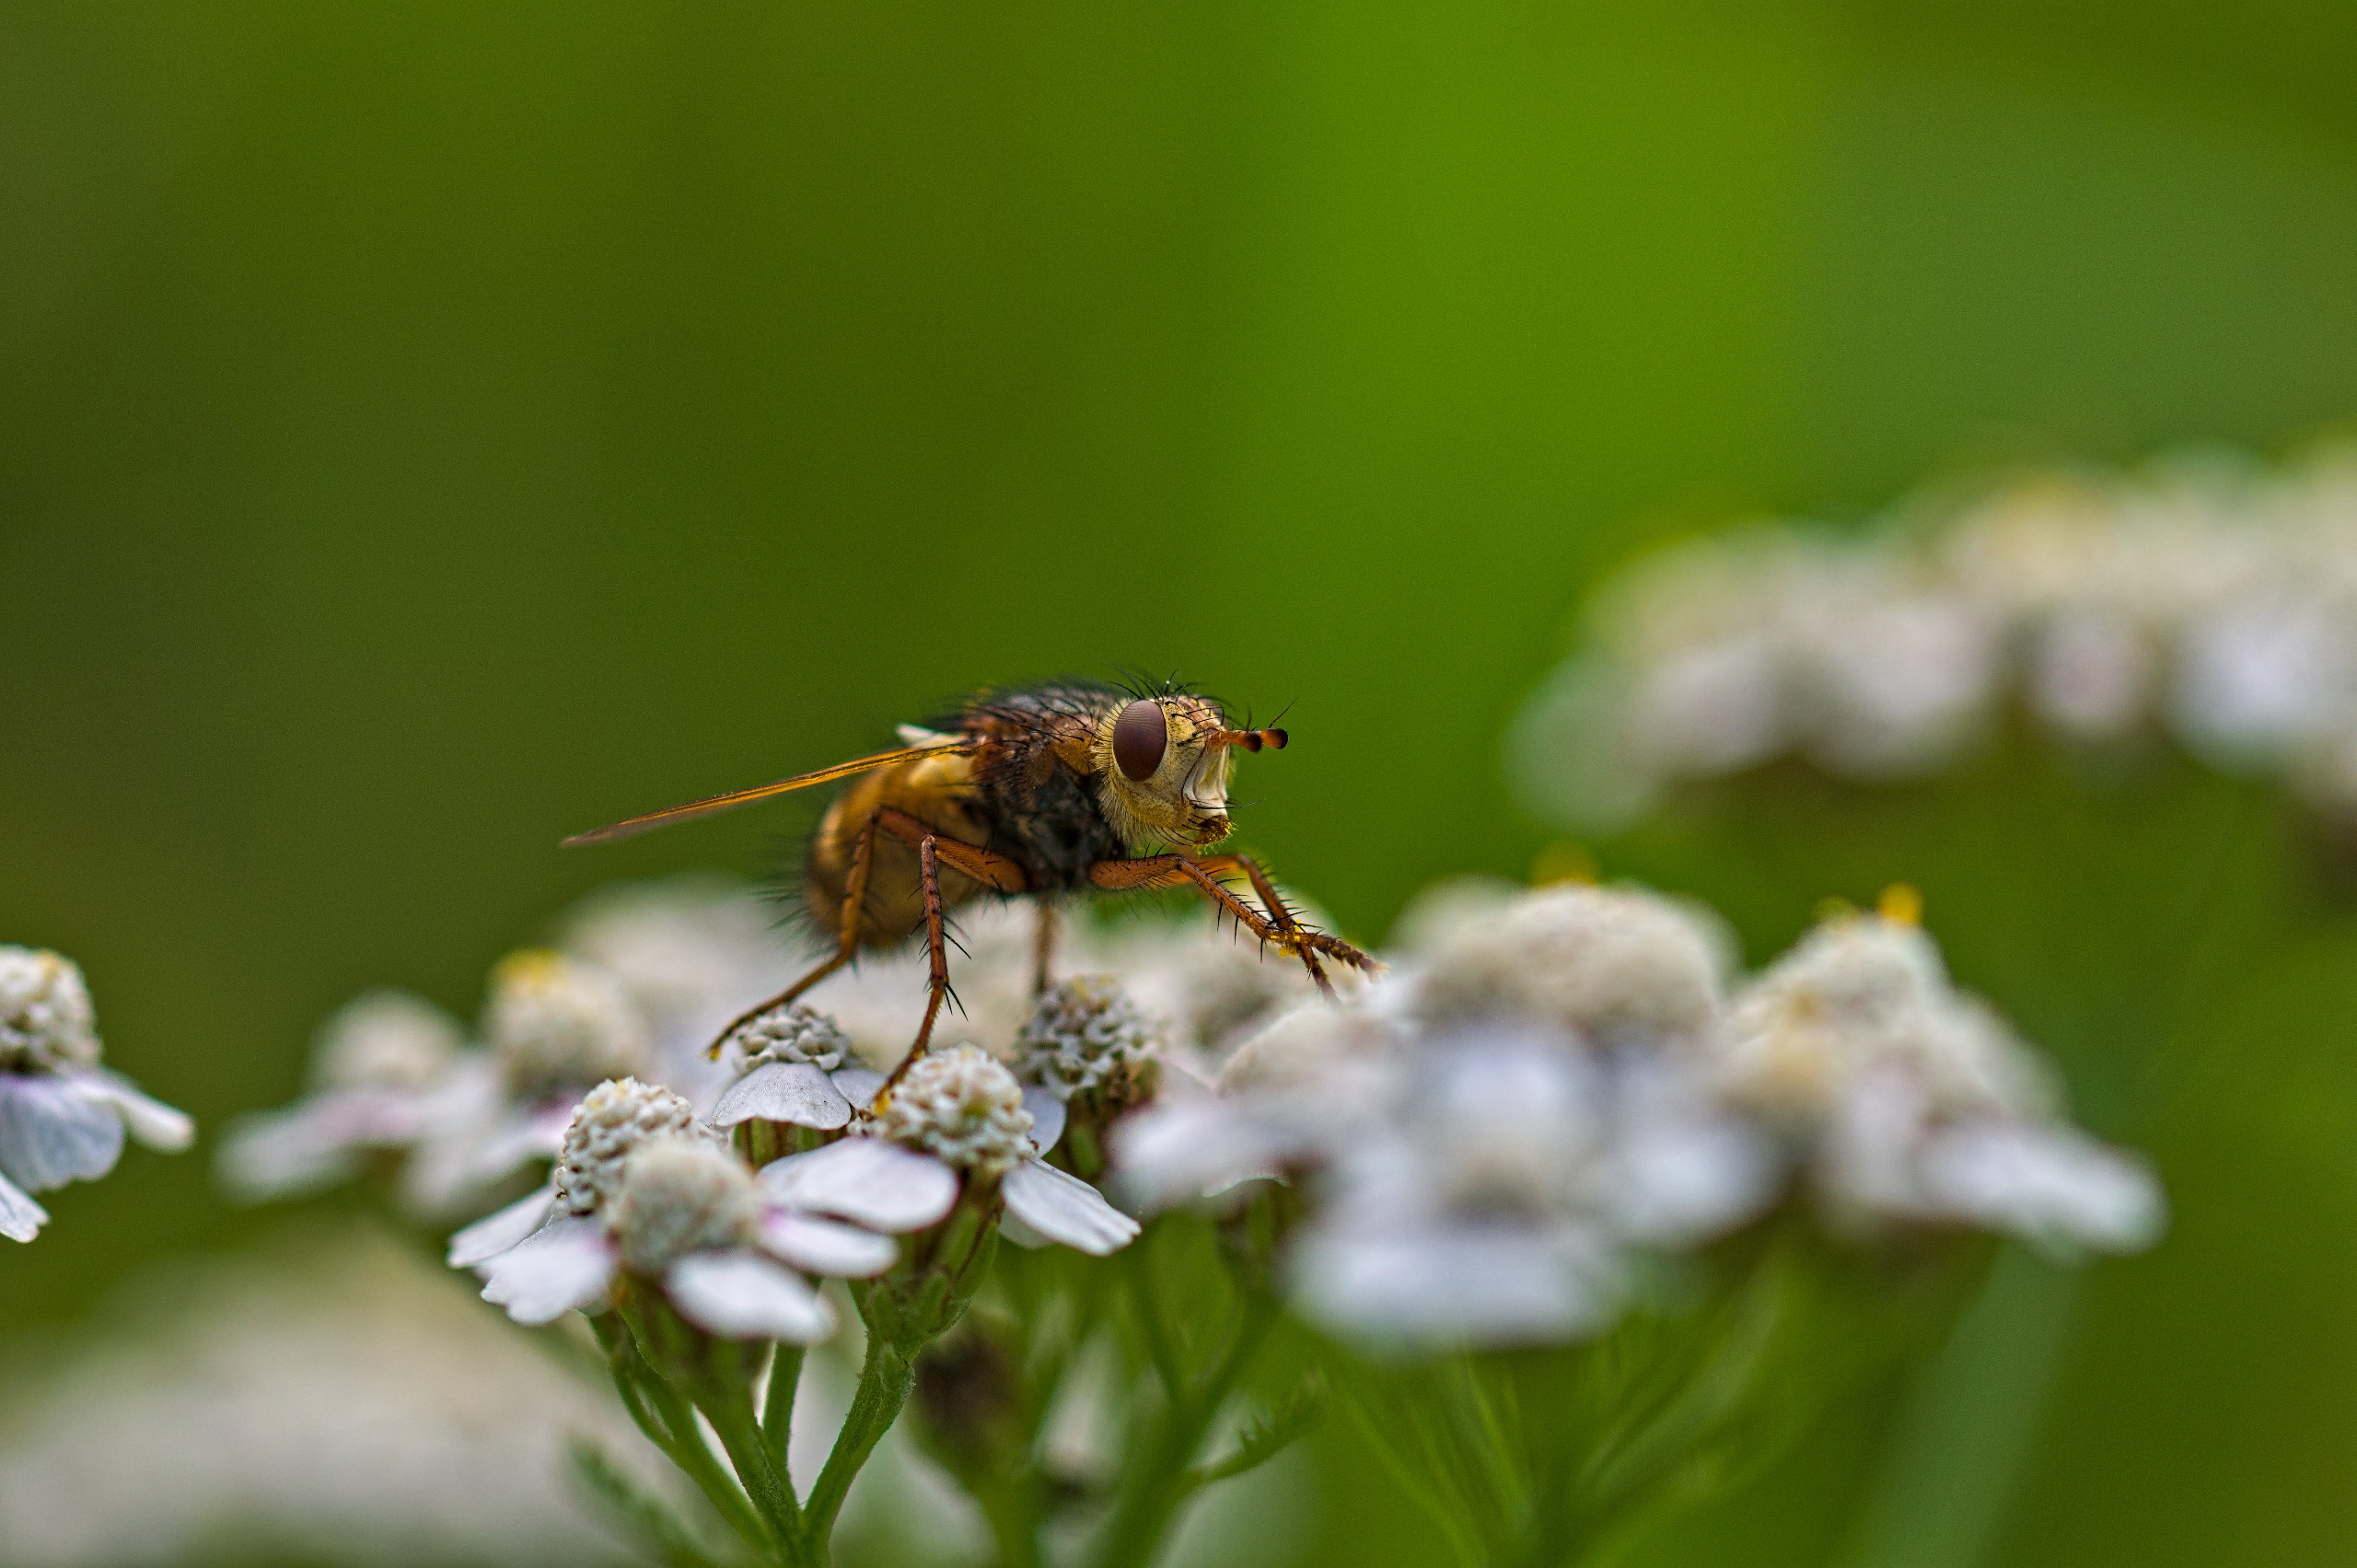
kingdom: Animalia
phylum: Arthropoda
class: Insecta
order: Diptera
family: Tachinidae
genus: Tachina
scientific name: Tachina fera
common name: Mellemfluen oskar
